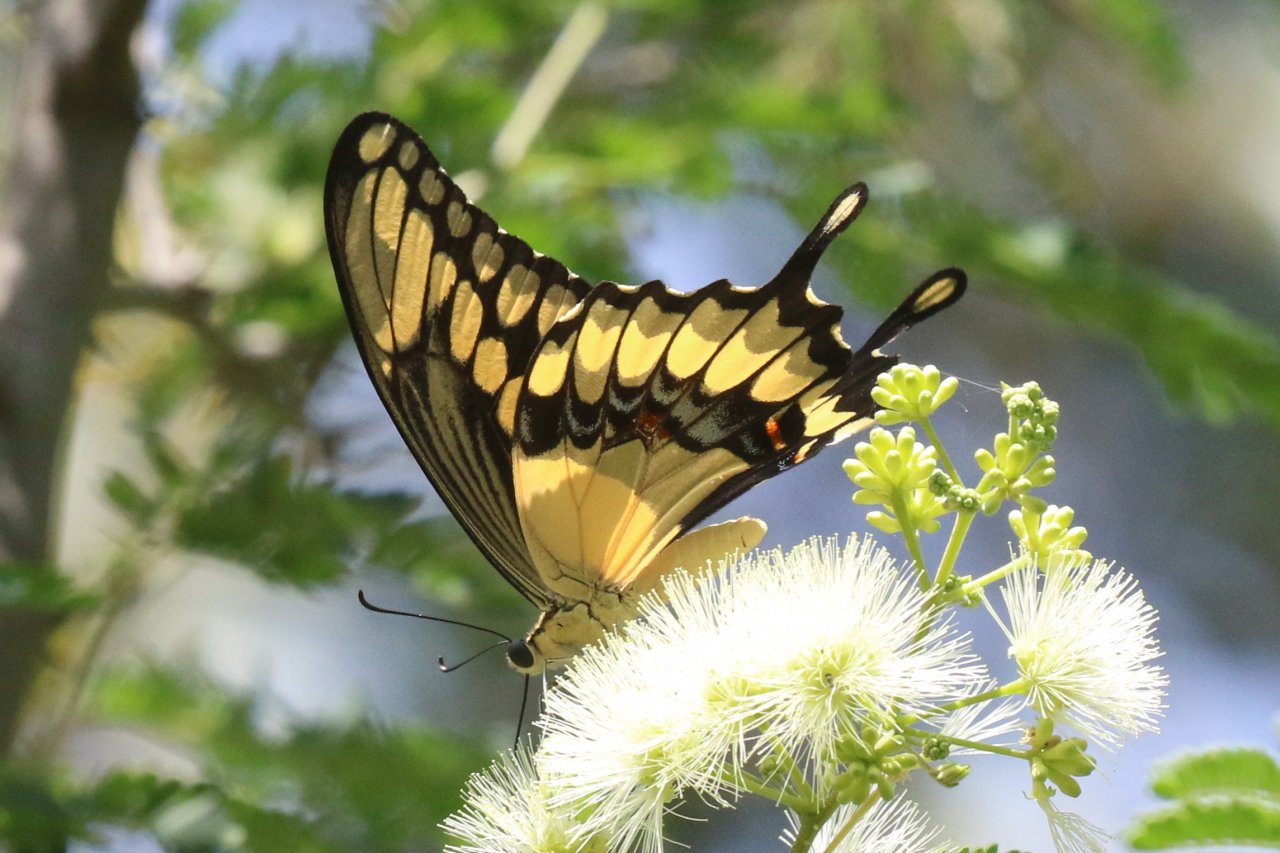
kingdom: Animalia
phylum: Arthropoda
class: Insecta
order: Lepidoptera
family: Papilionidae
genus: Papilio
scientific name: Papilio rumiko
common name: Western Giant Swallowtail
